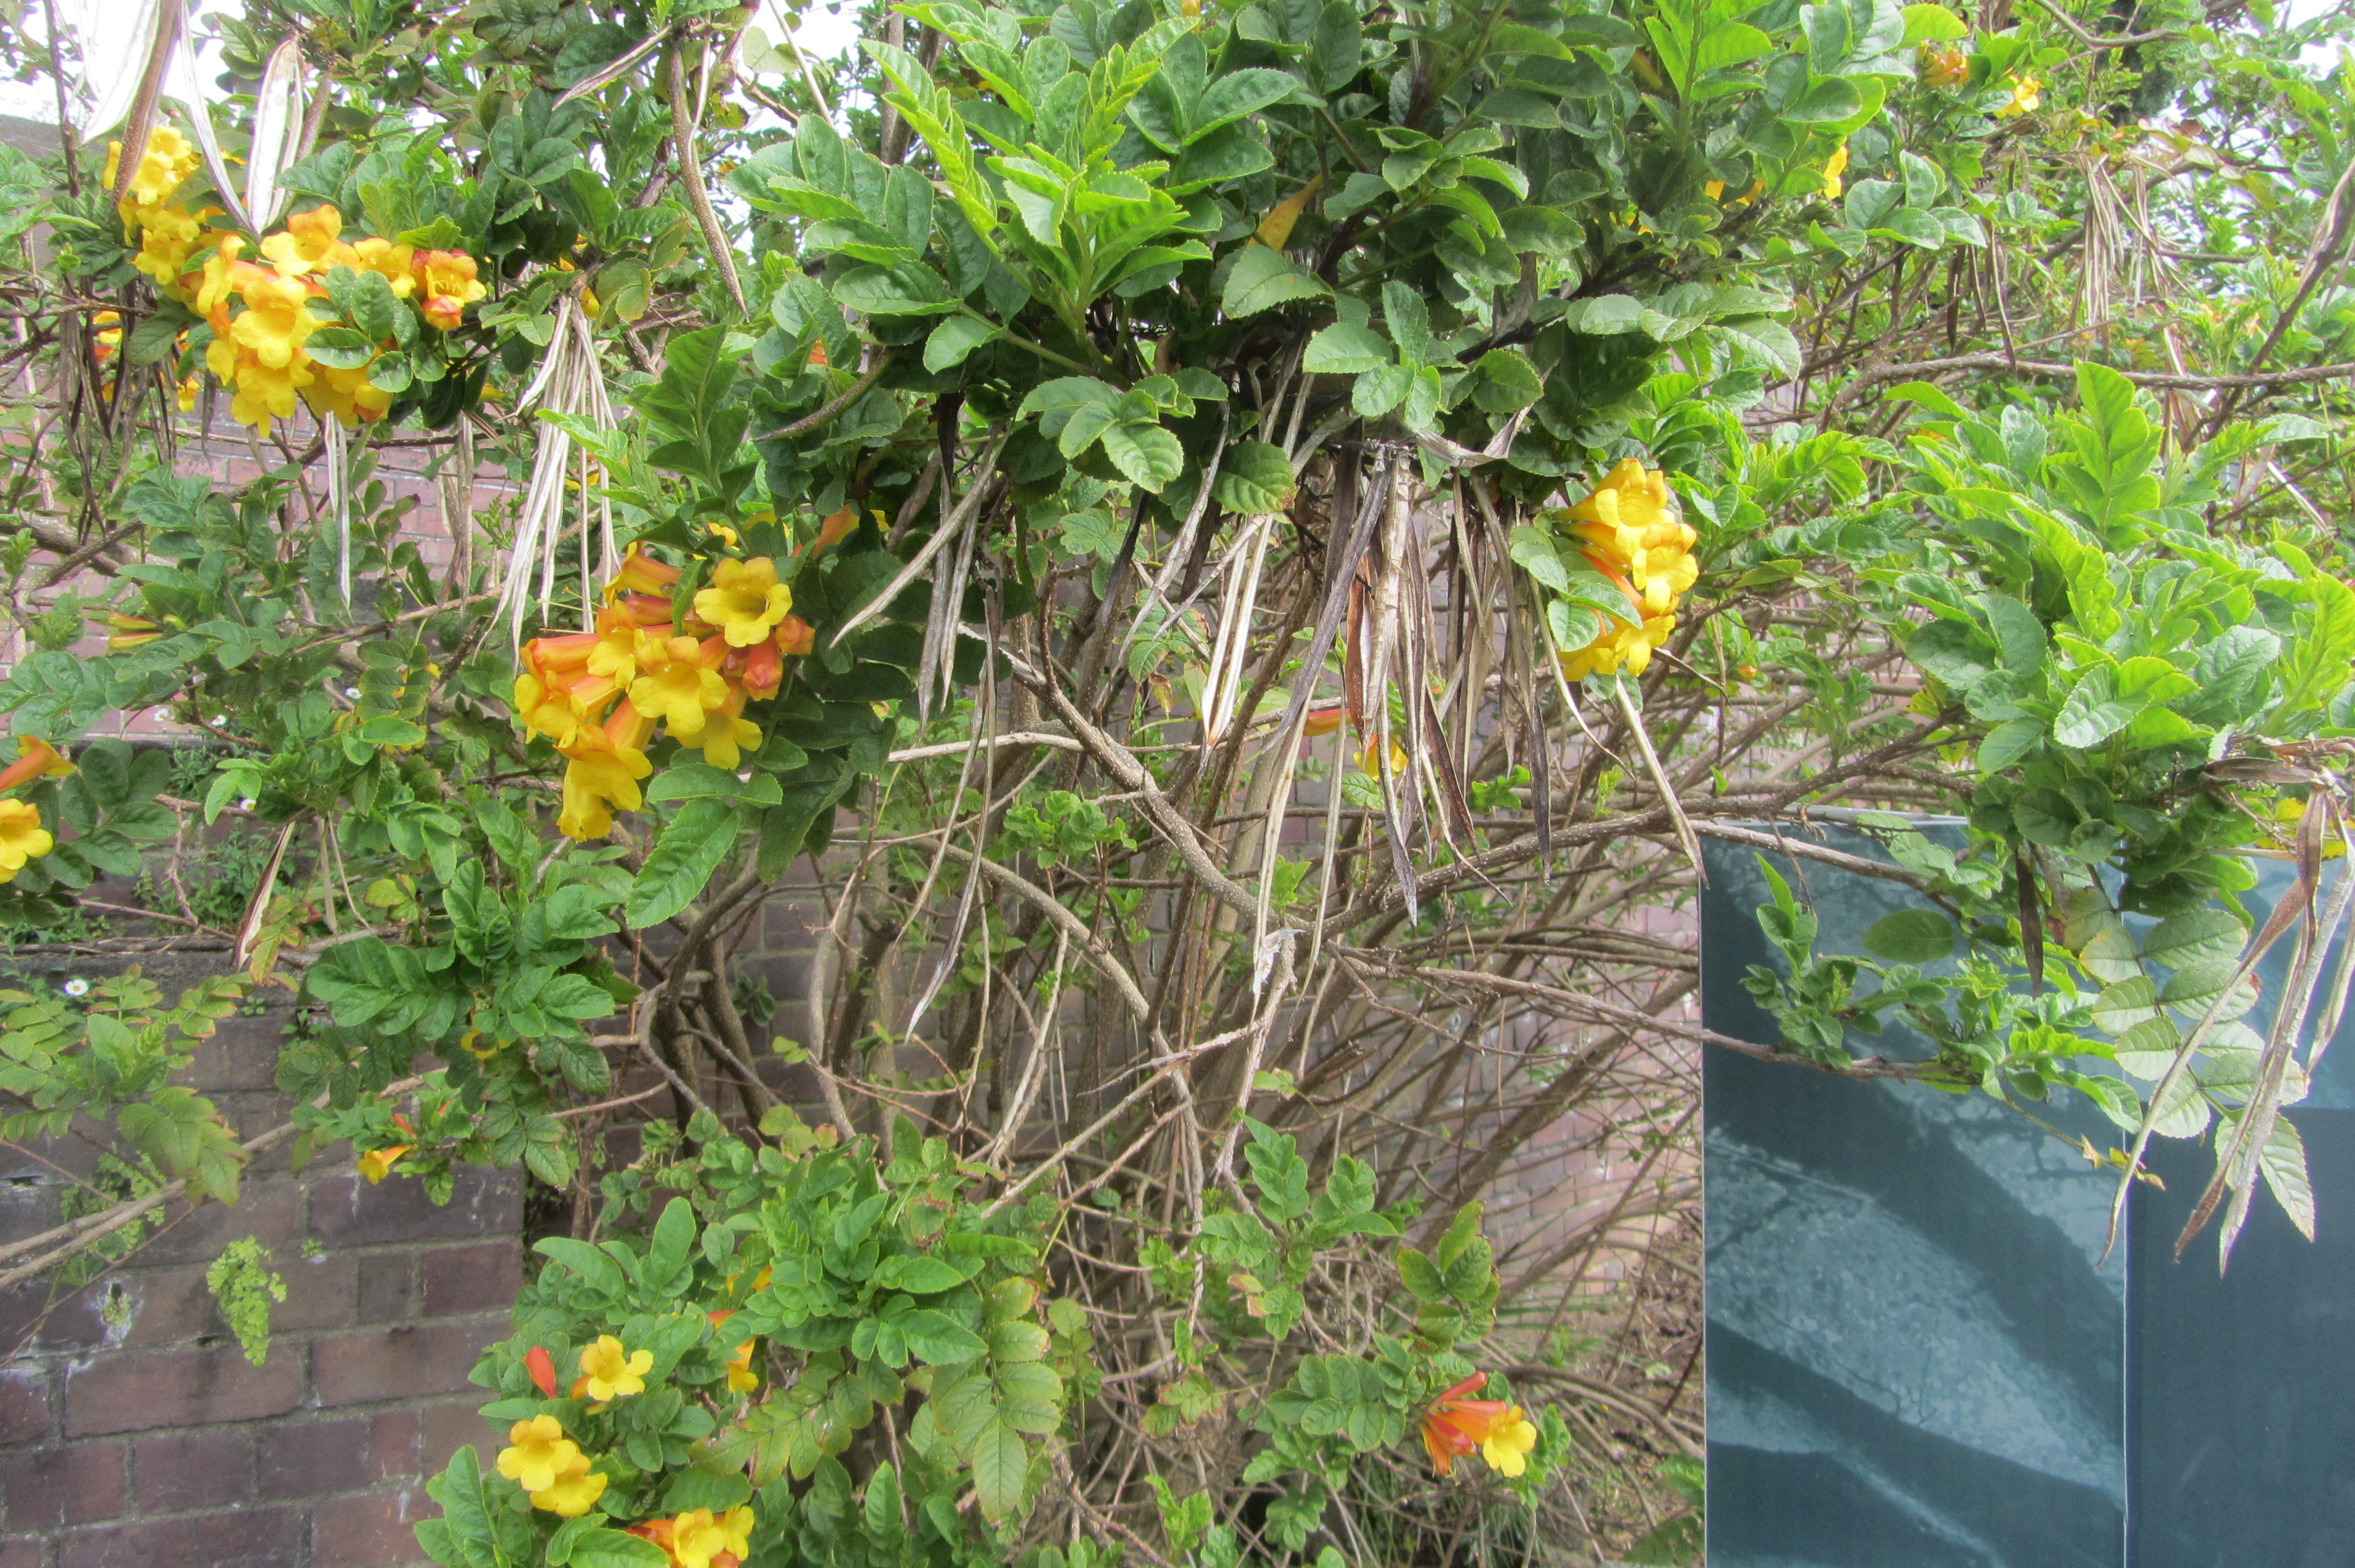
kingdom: Plantae
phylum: Tracheophyta
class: Magnoliopsida
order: Lamiales
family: Bignoniaceae
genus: Tecoma
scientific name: Tecoma stans
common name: Yellow trumpetbush
